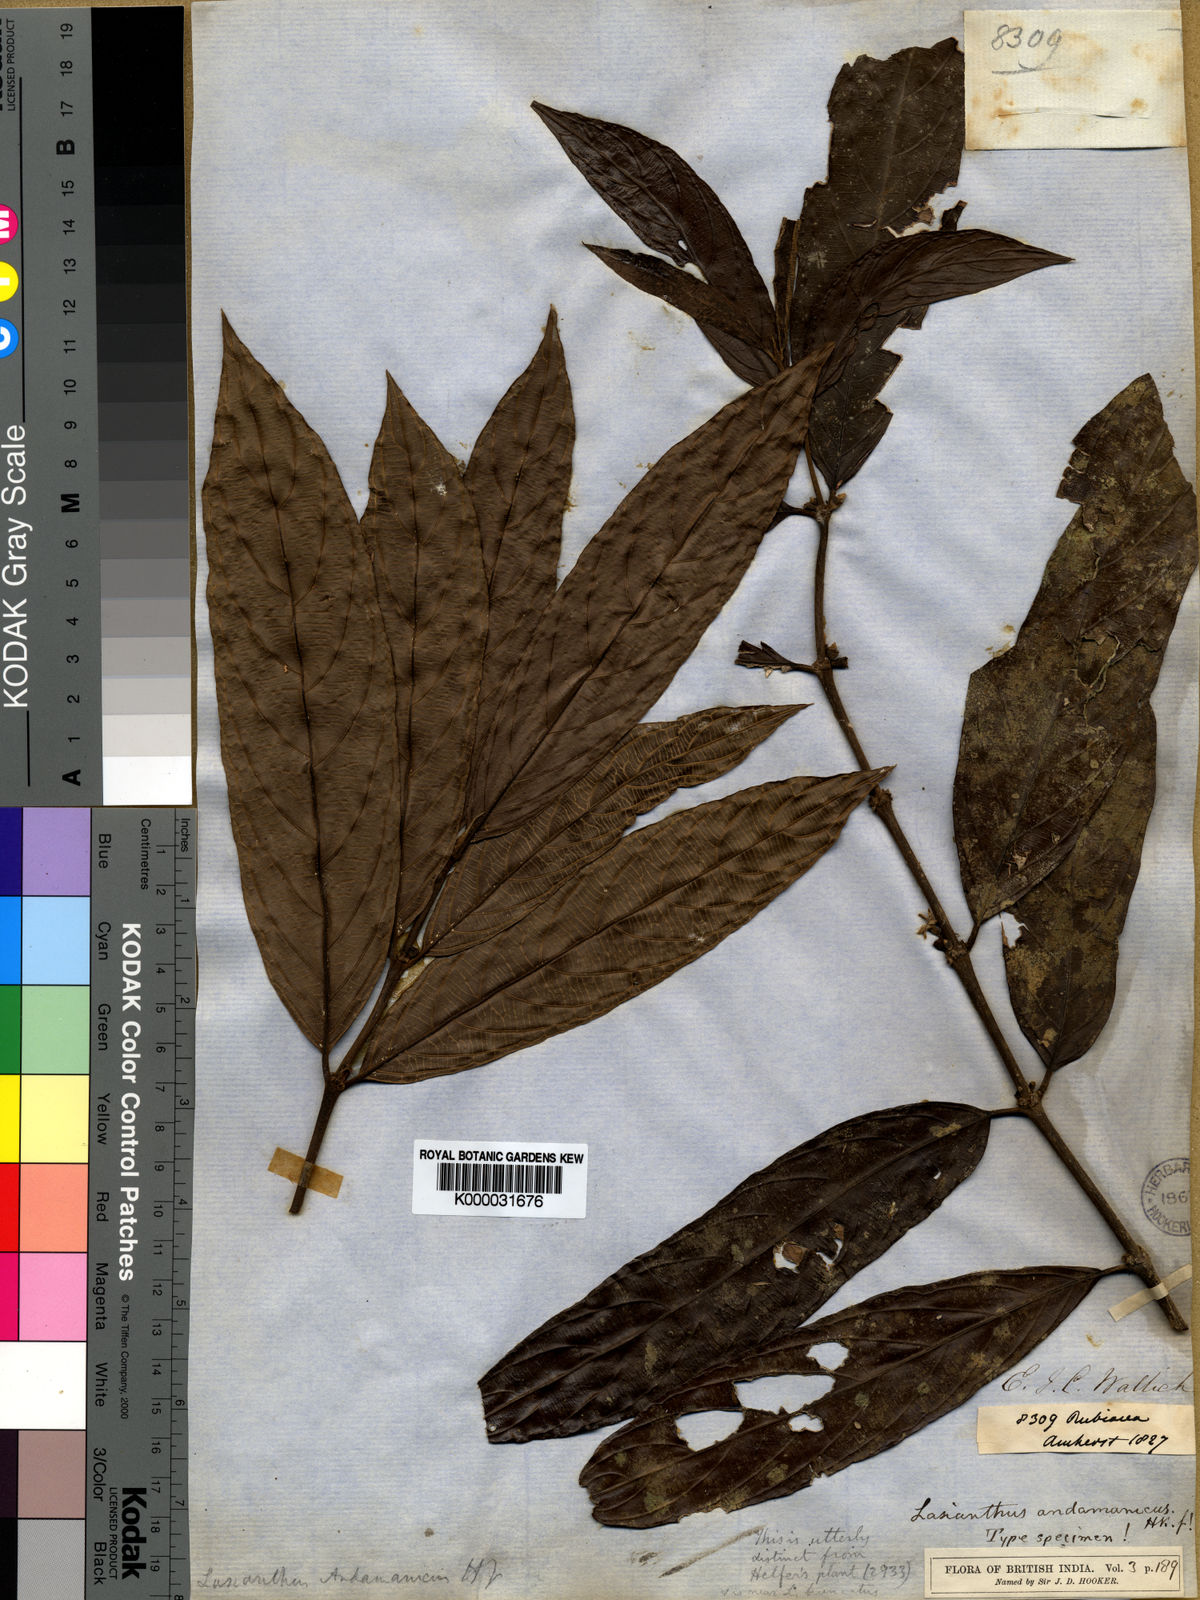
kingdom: Plantae
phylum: Tracheophyta
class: Magnoliopsida
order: Gentianales
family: Rubiaceae
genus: Lasianthus
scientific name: Lasianthus verticillatus
